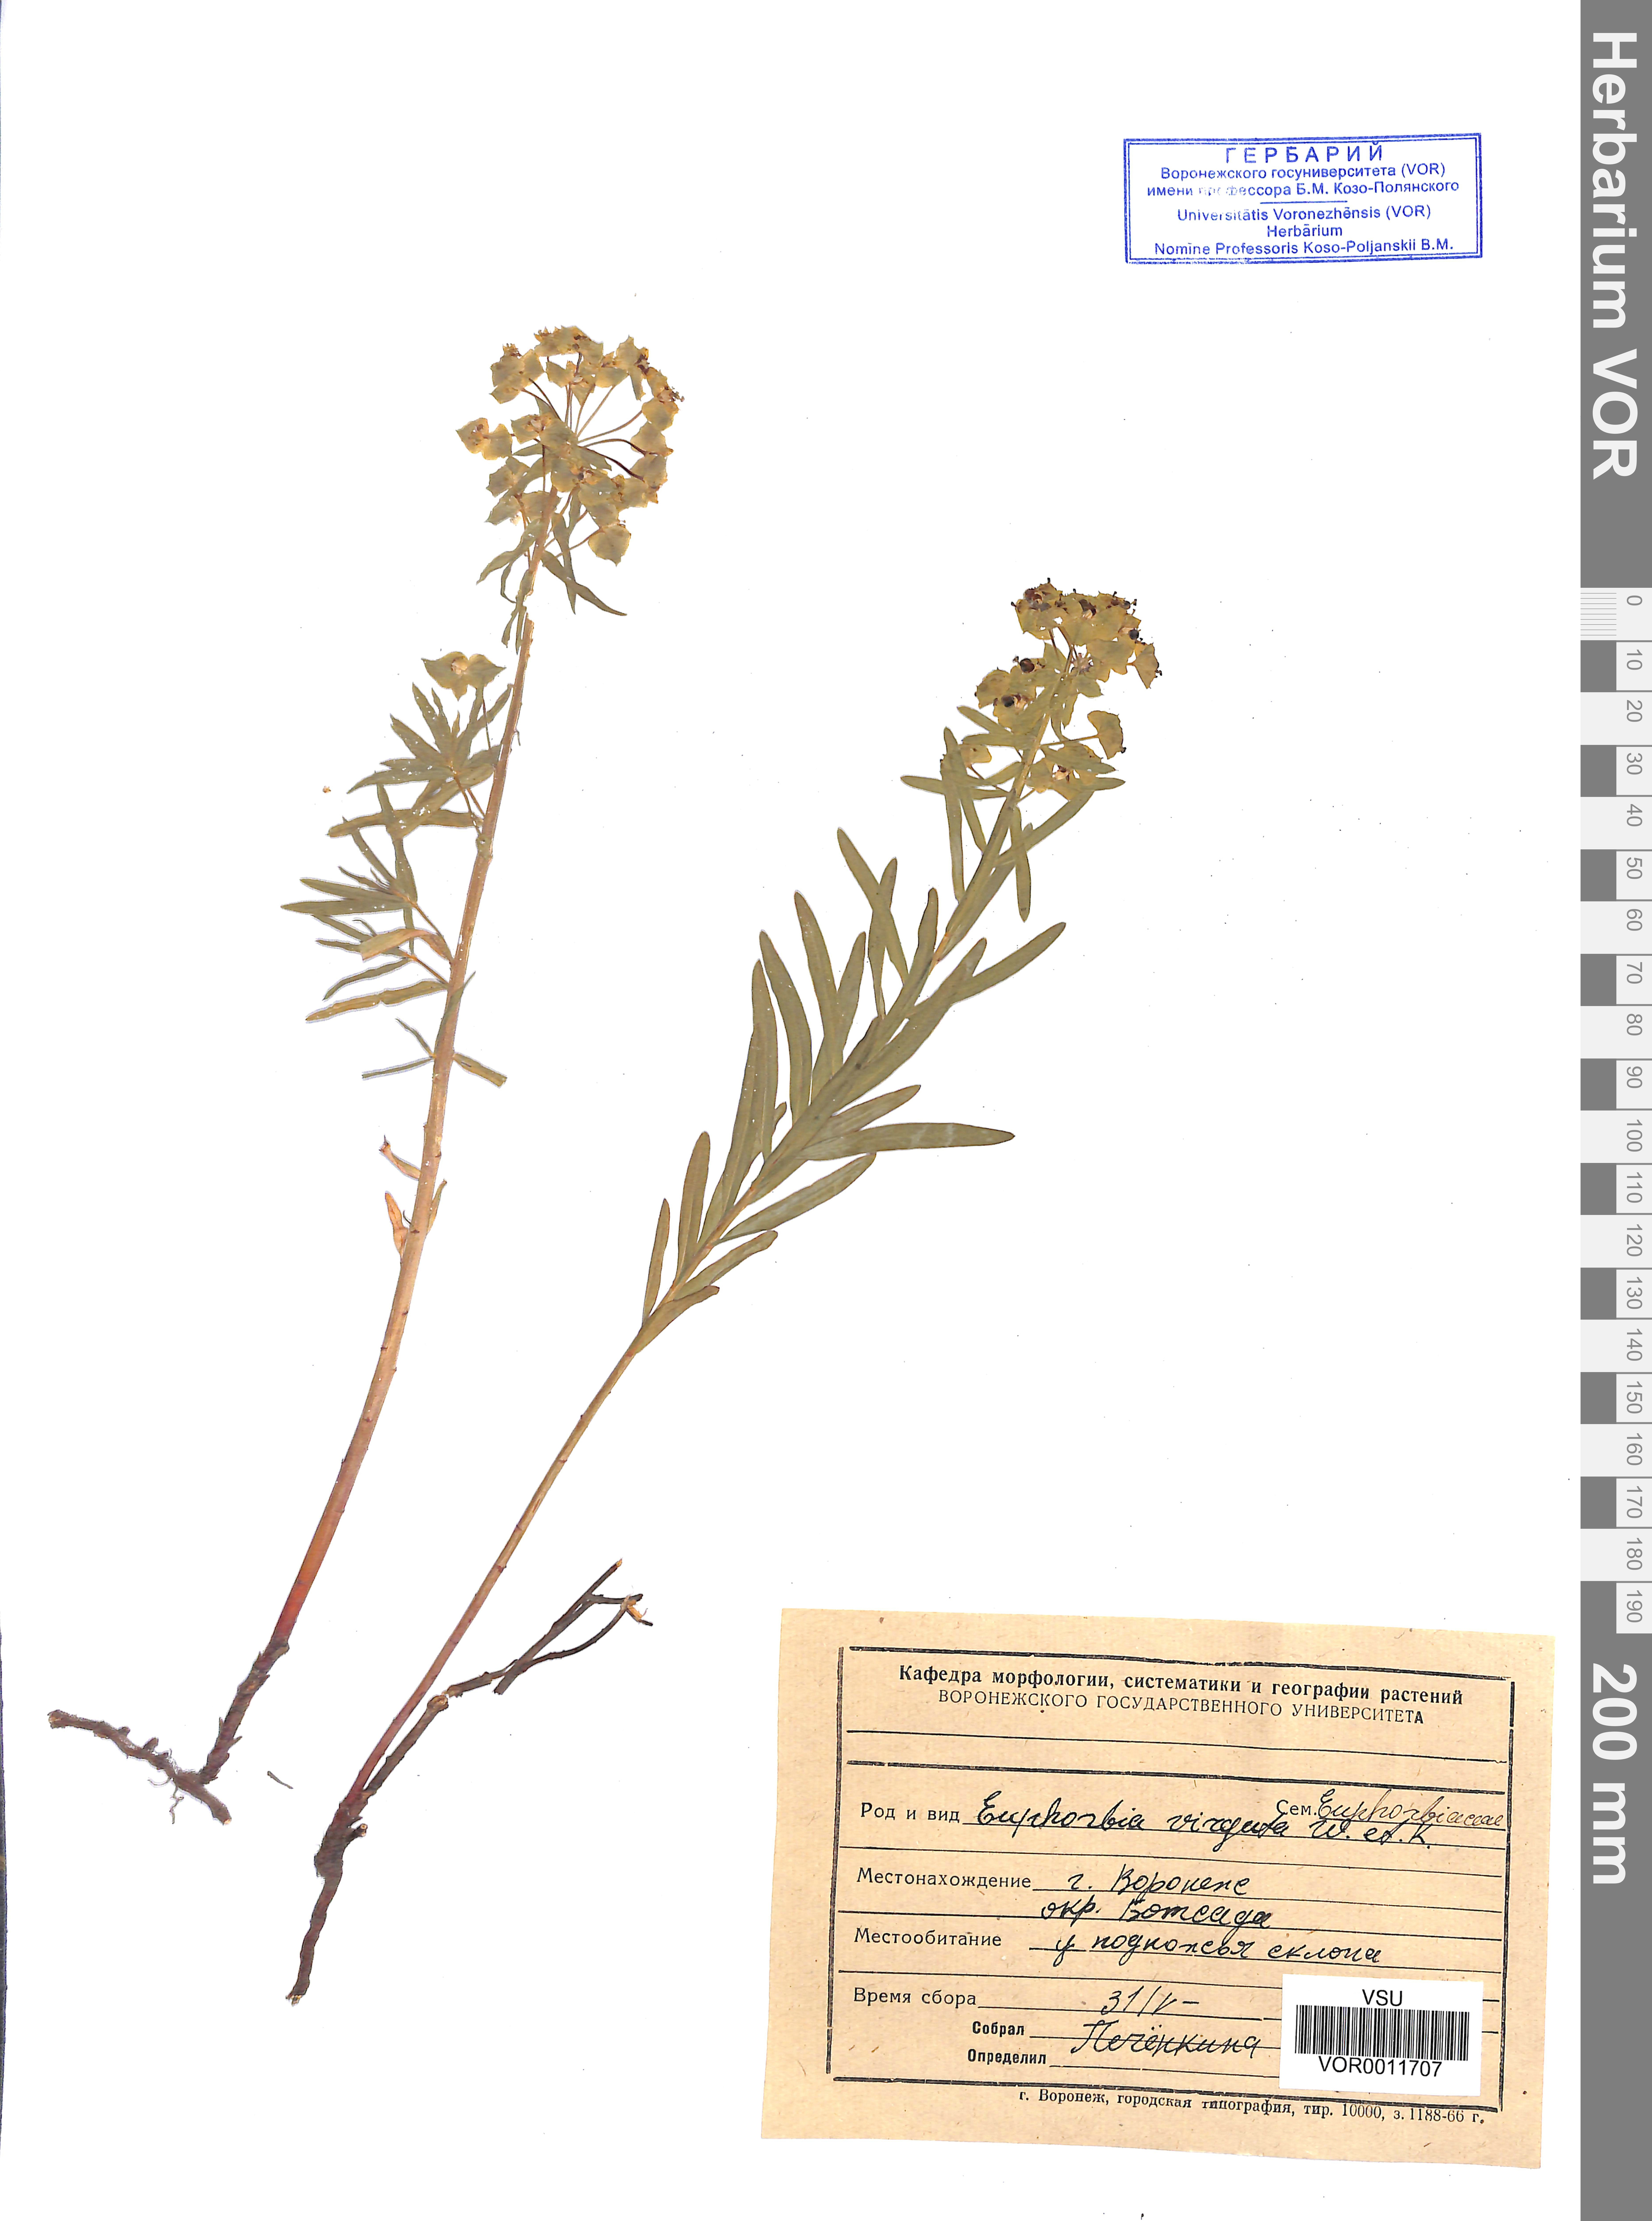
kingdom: Plantae
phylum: Tracheophyta
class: Magnoliopsida
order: Malpighiales
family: Euphorbiaceae
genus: Euphorbia
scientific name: Euphorbia virgata
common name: Leafy spurge
